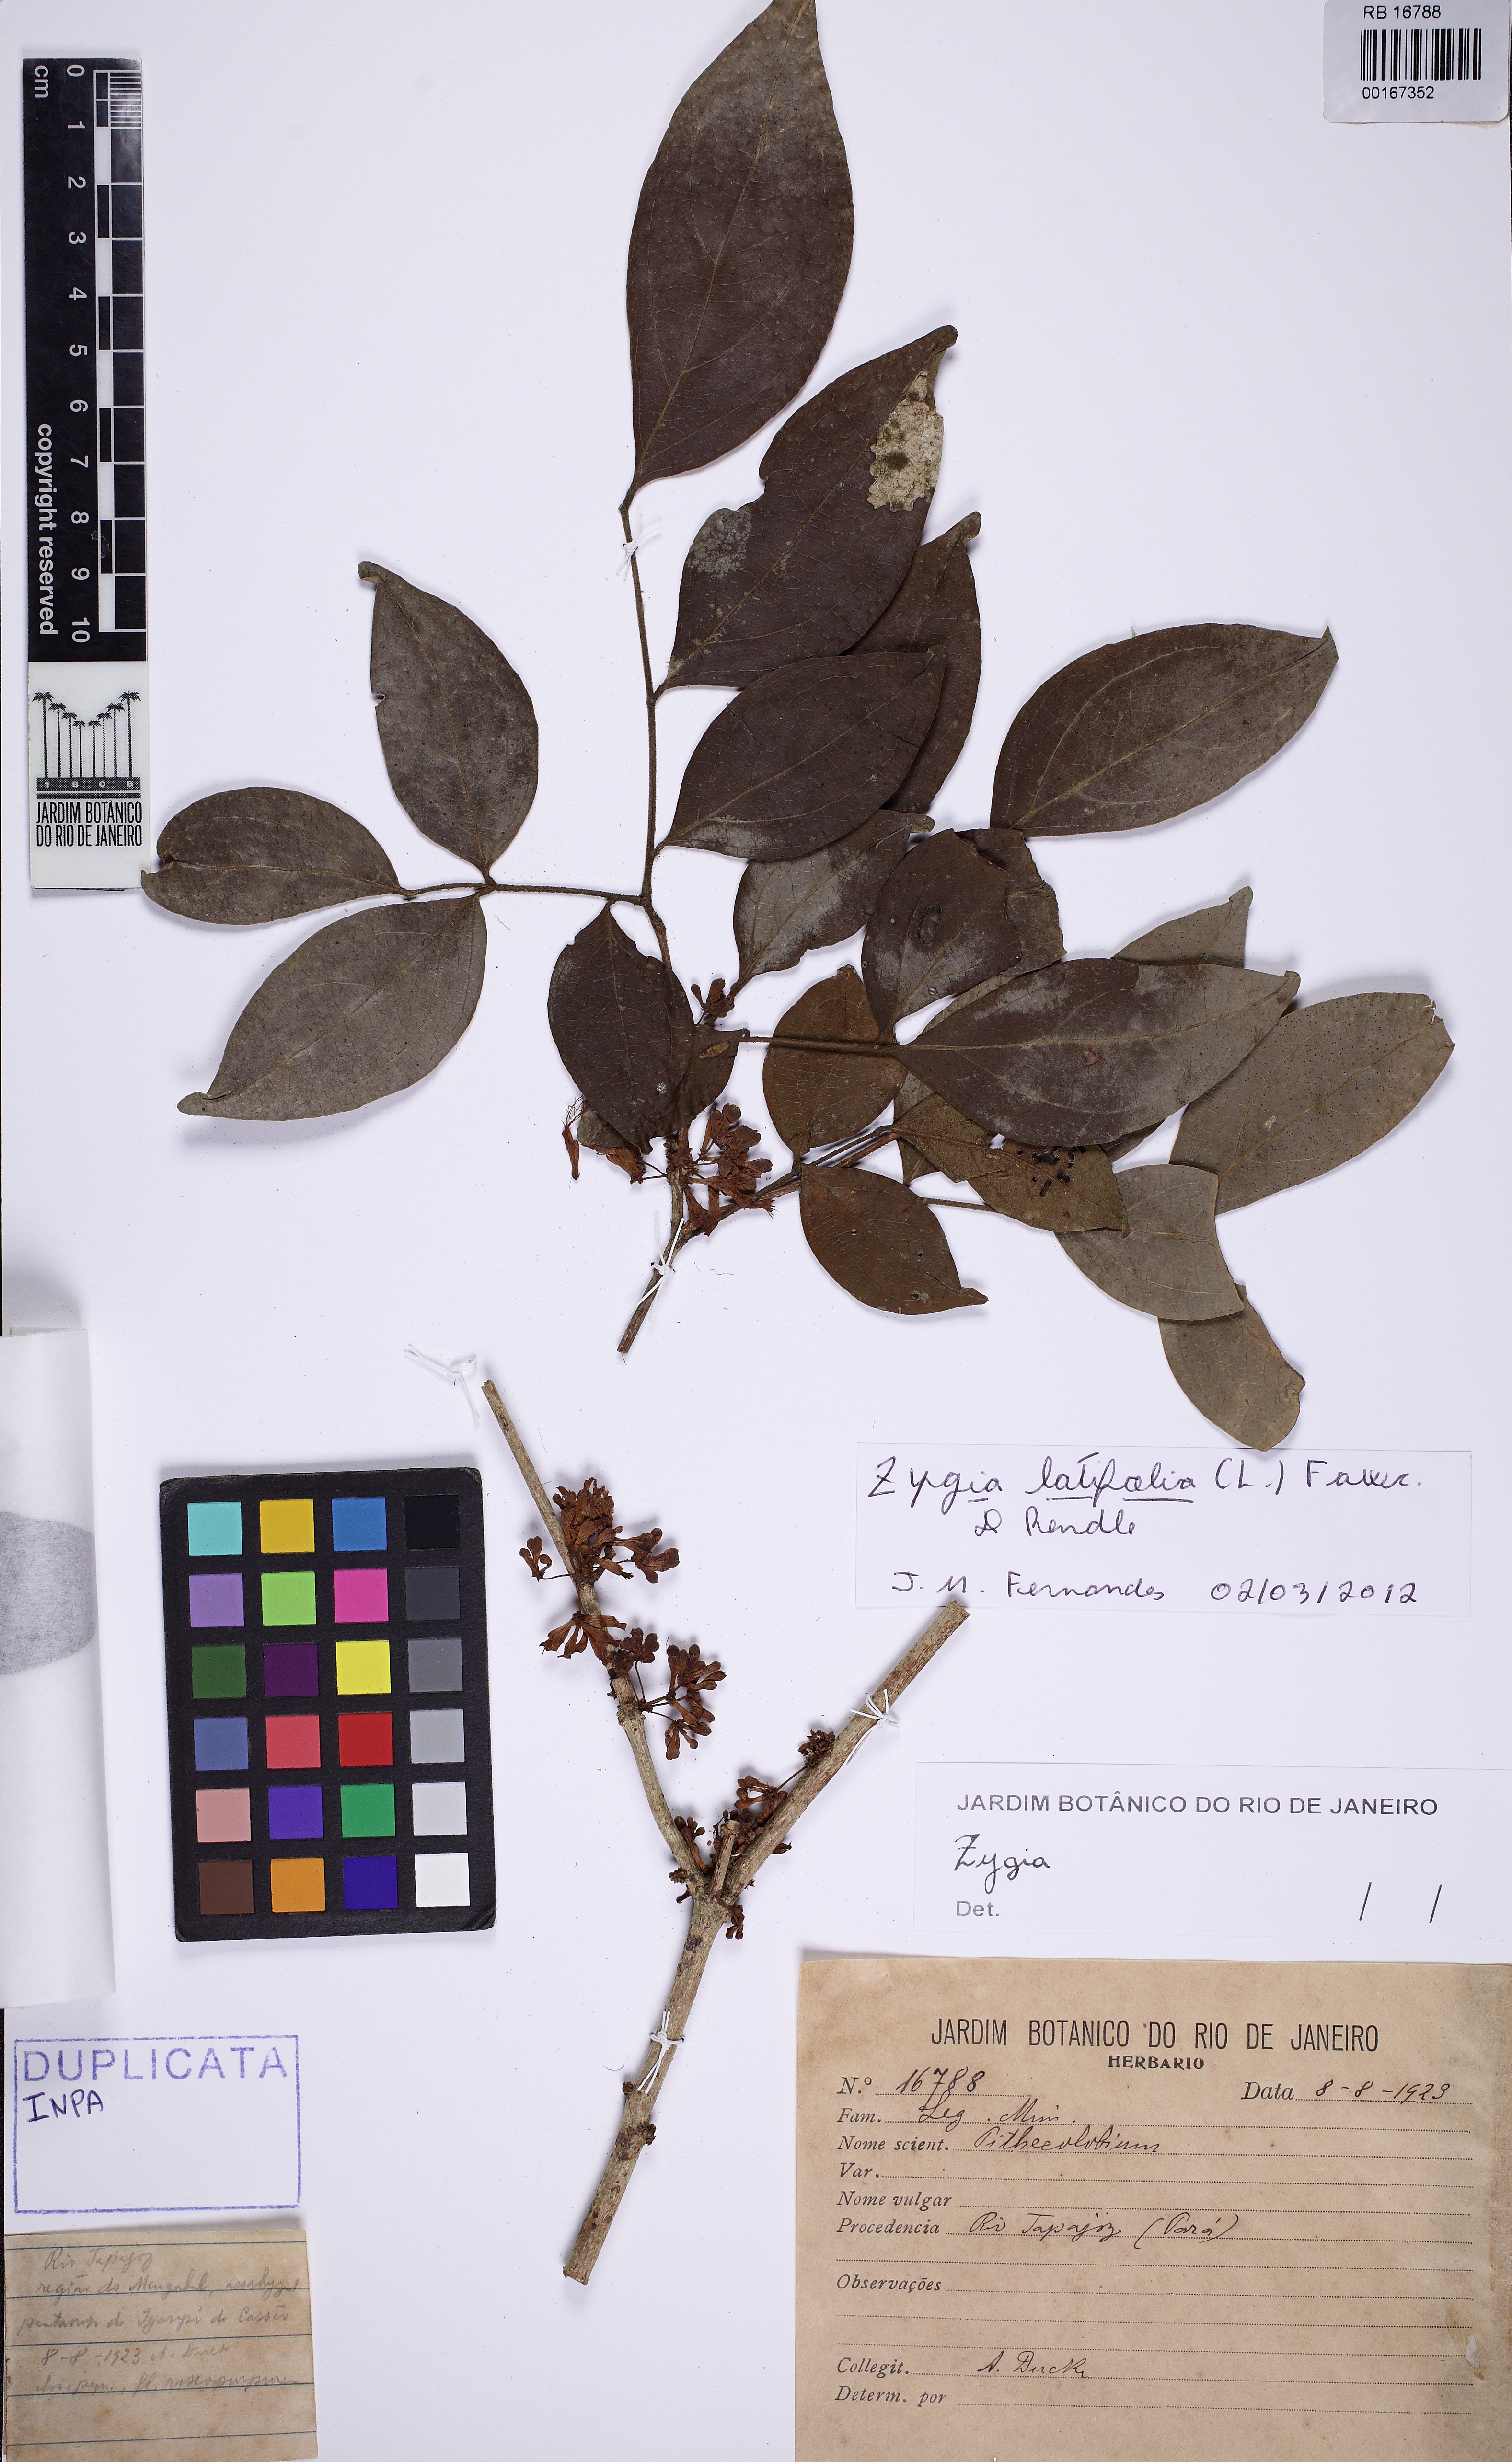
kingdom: Plantae
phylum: Tracheophyta
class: Magnoliopsida
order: Fabales
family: Fabaceae
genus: Zygia
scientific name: Zygia latifolia
